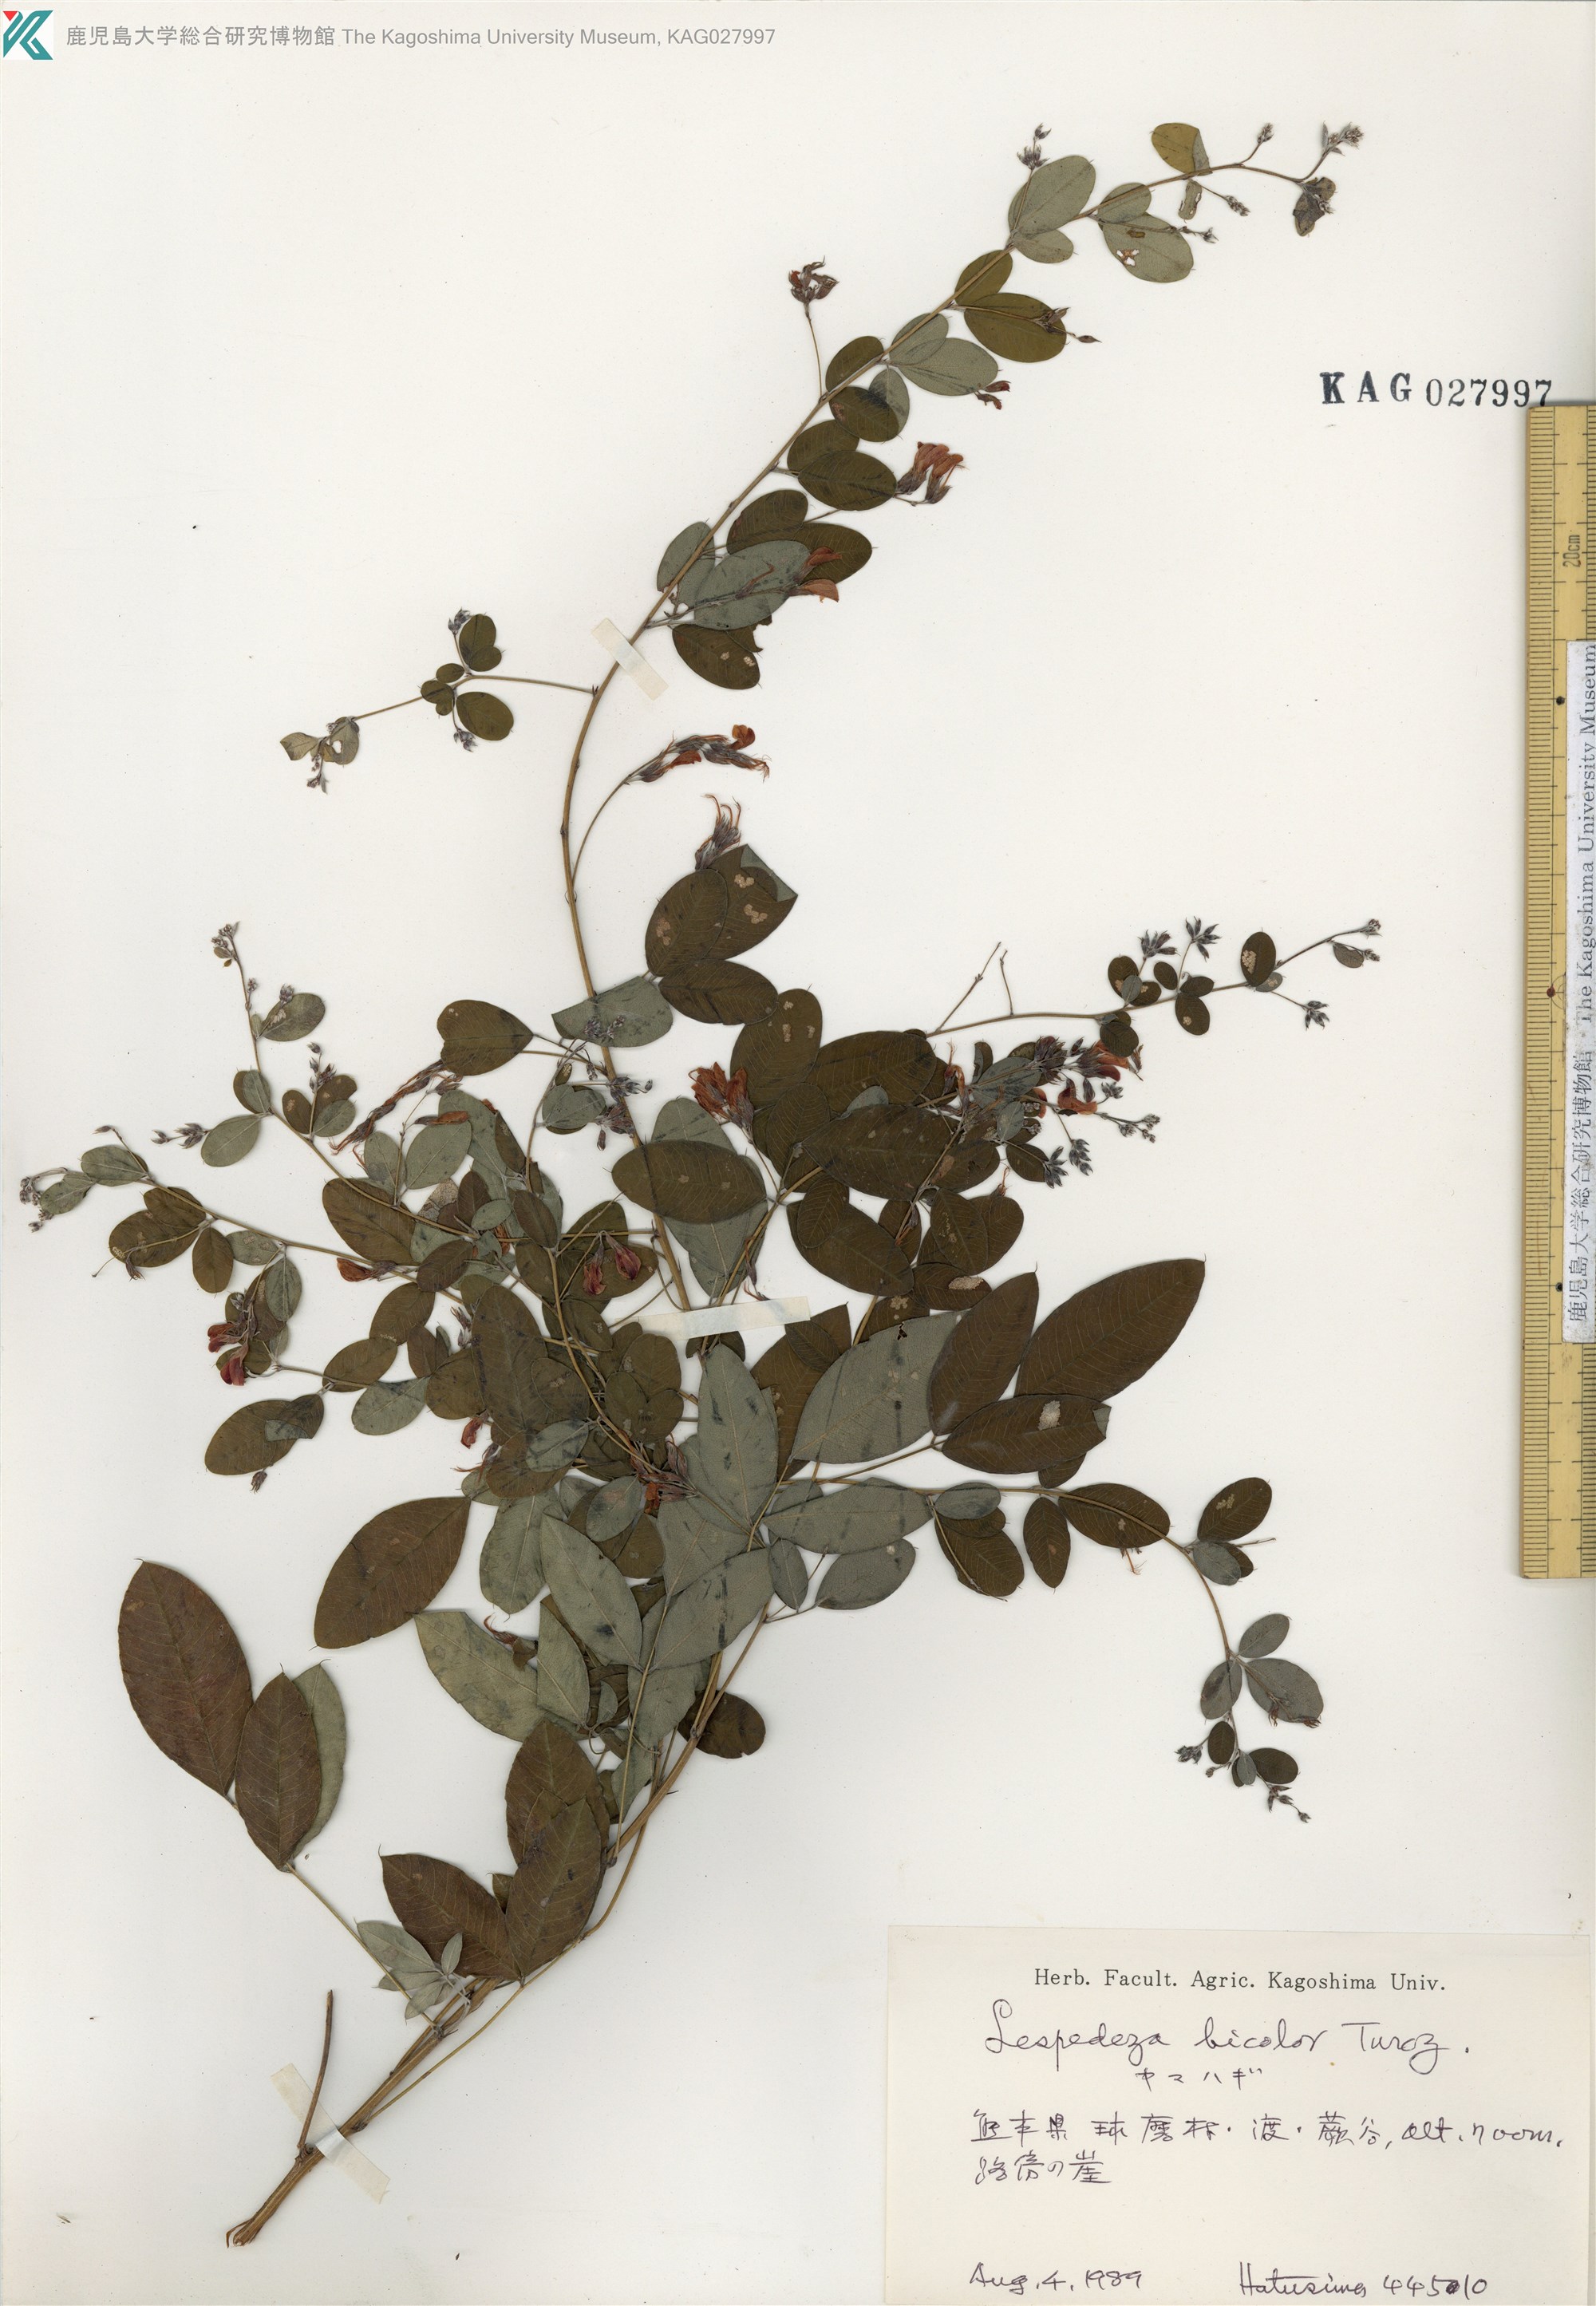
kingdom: Plantae
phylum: Tracheophyta
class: Magnoliopsida
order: Fabales
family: Fabaceae
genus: Lespedeza
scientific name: Lespedeza bicolor
